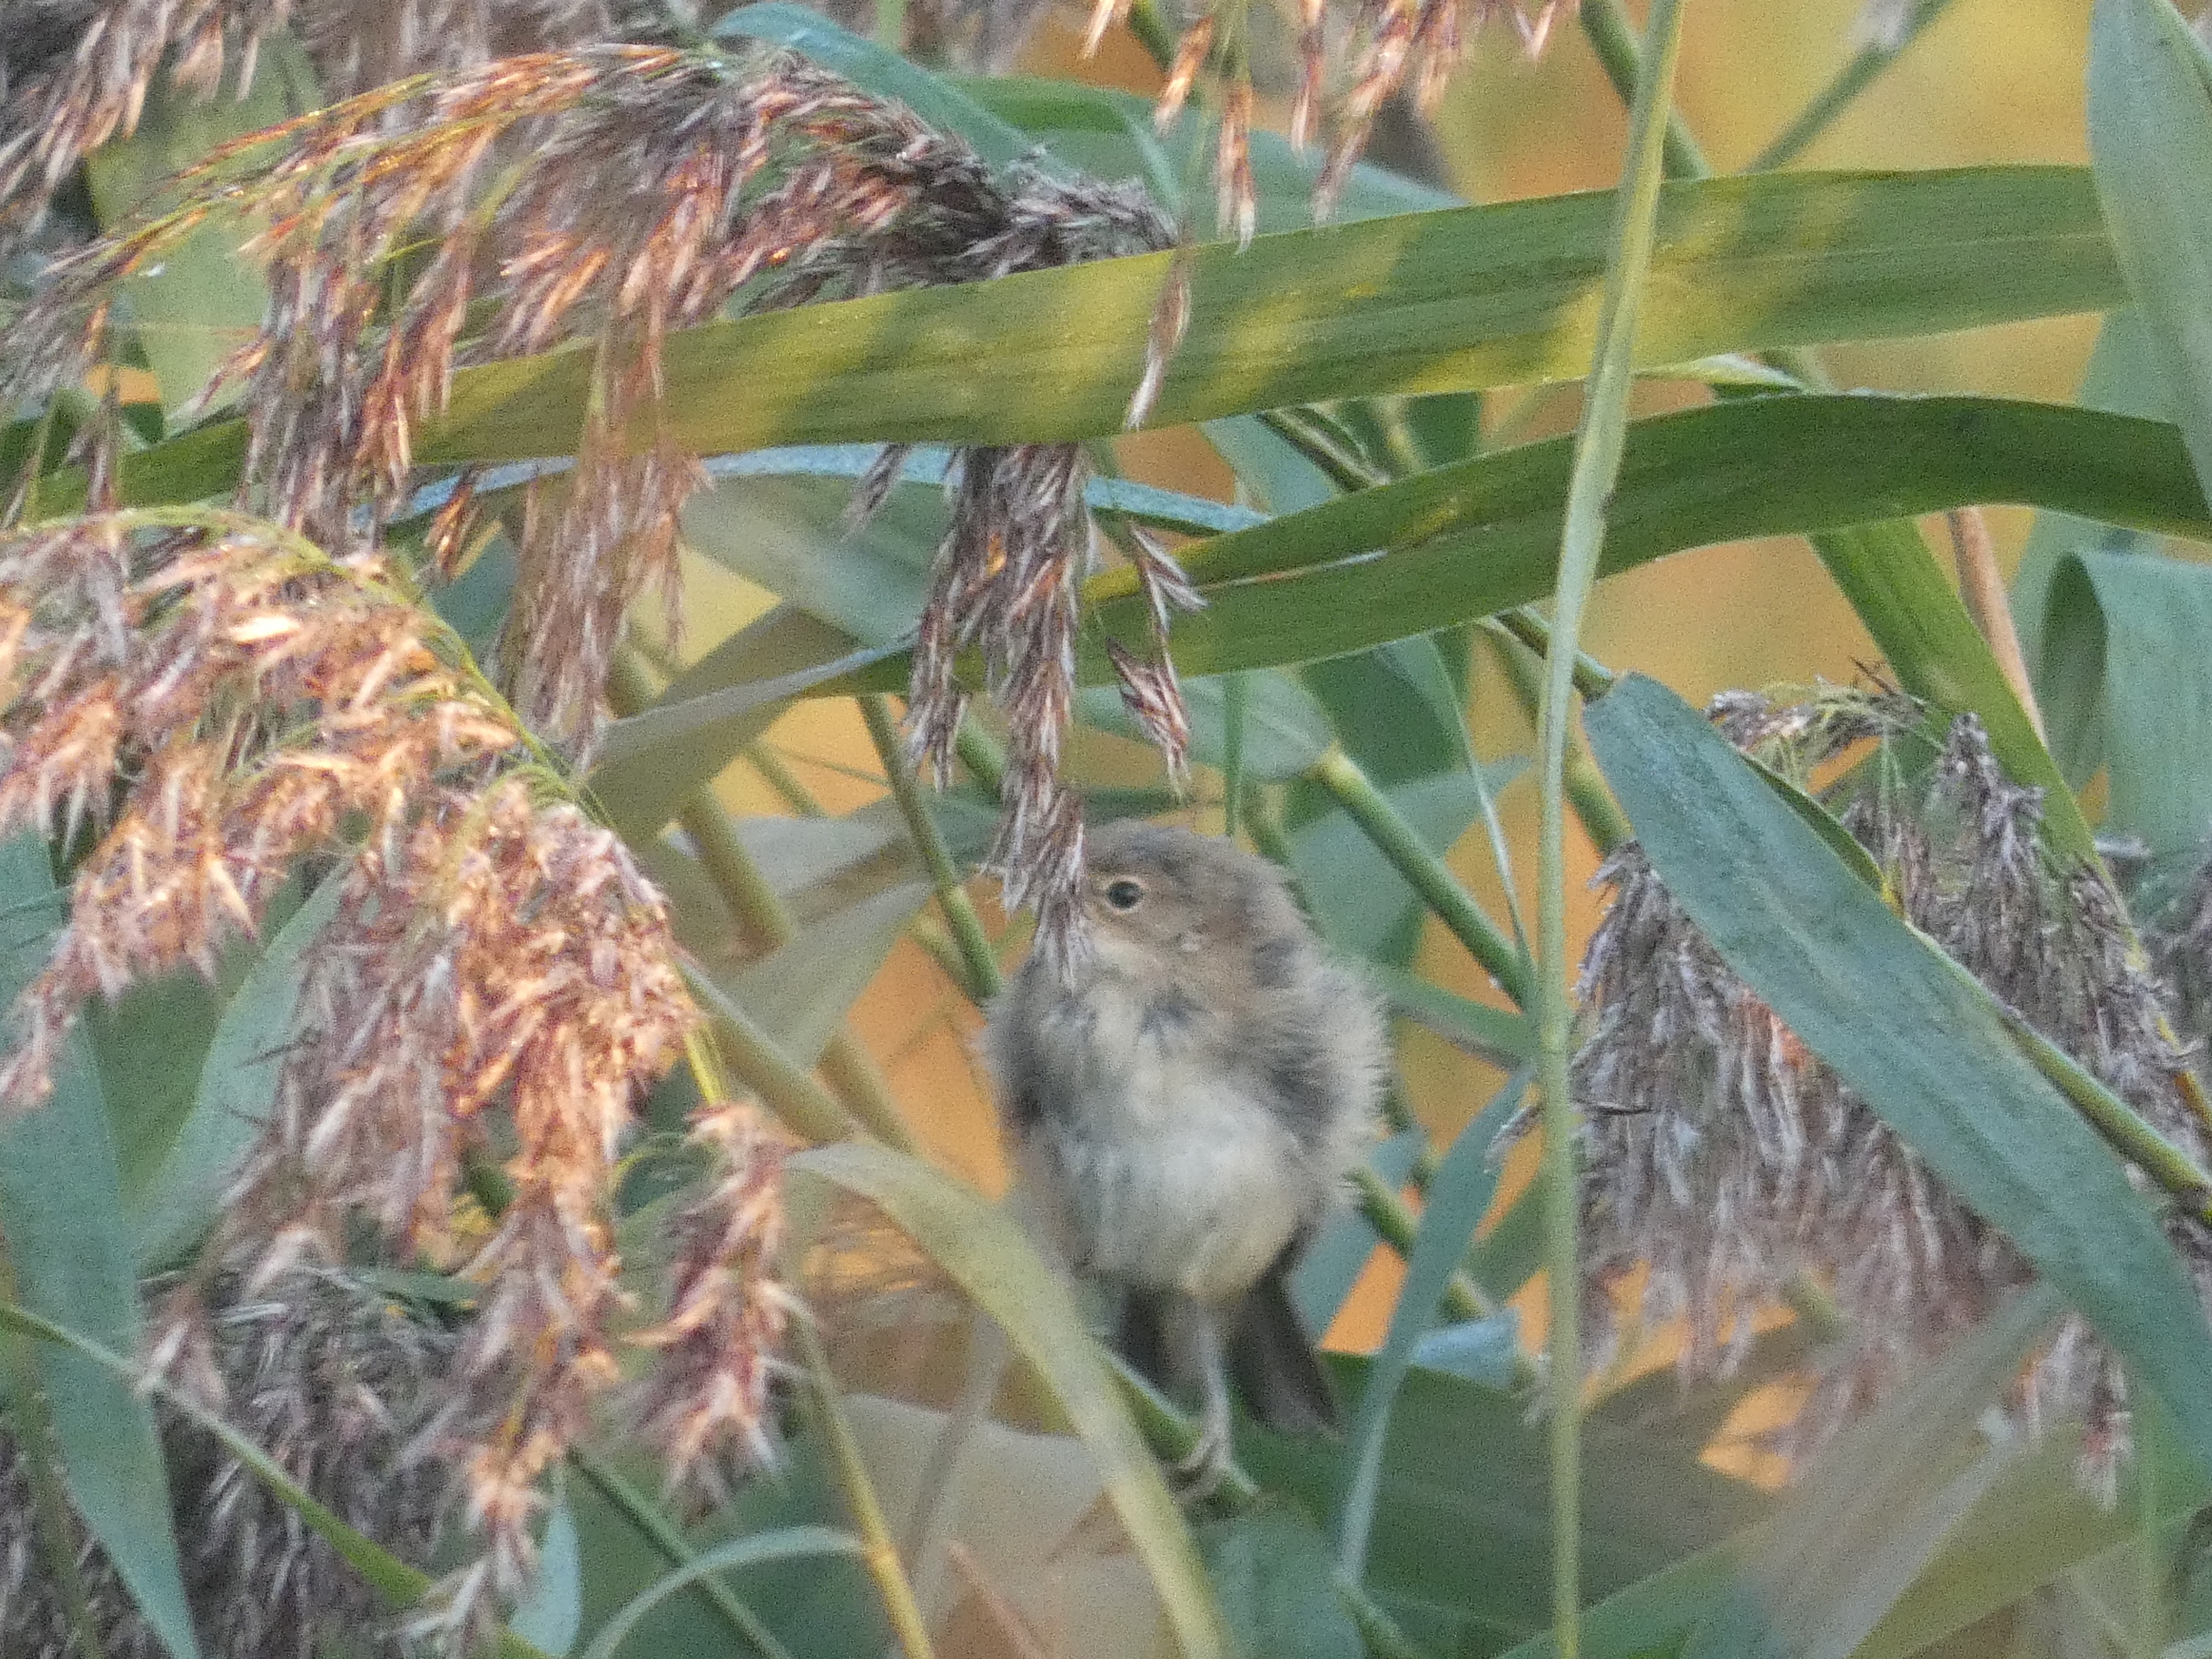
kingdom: Animalia
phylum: Chordata
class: Aves
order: Passeriformes
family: Acrocephalidae
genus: Acrocephalus
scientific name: Acrocephalus
